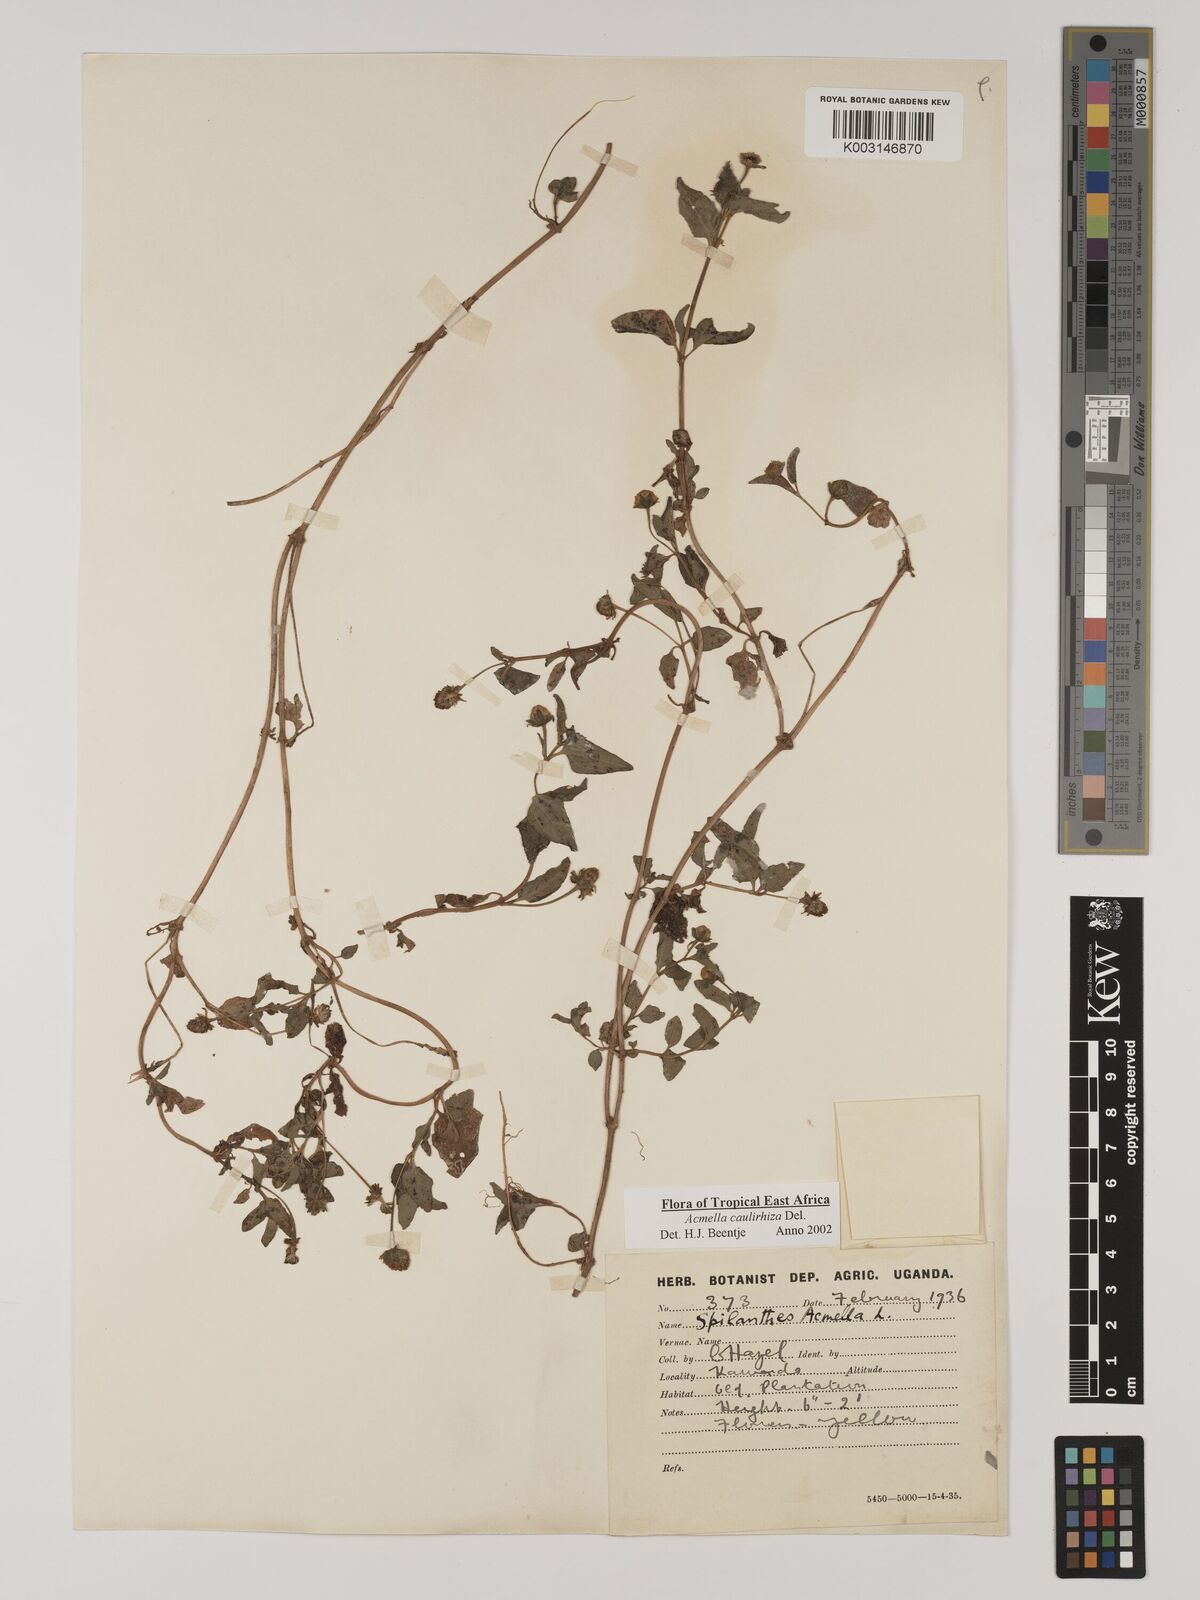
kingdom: Plantae
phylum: Tracheophyta
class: Magnoliopsida
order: Asterales
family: Asteraceae
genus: Acmella
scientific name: Acmella caulirhiza
